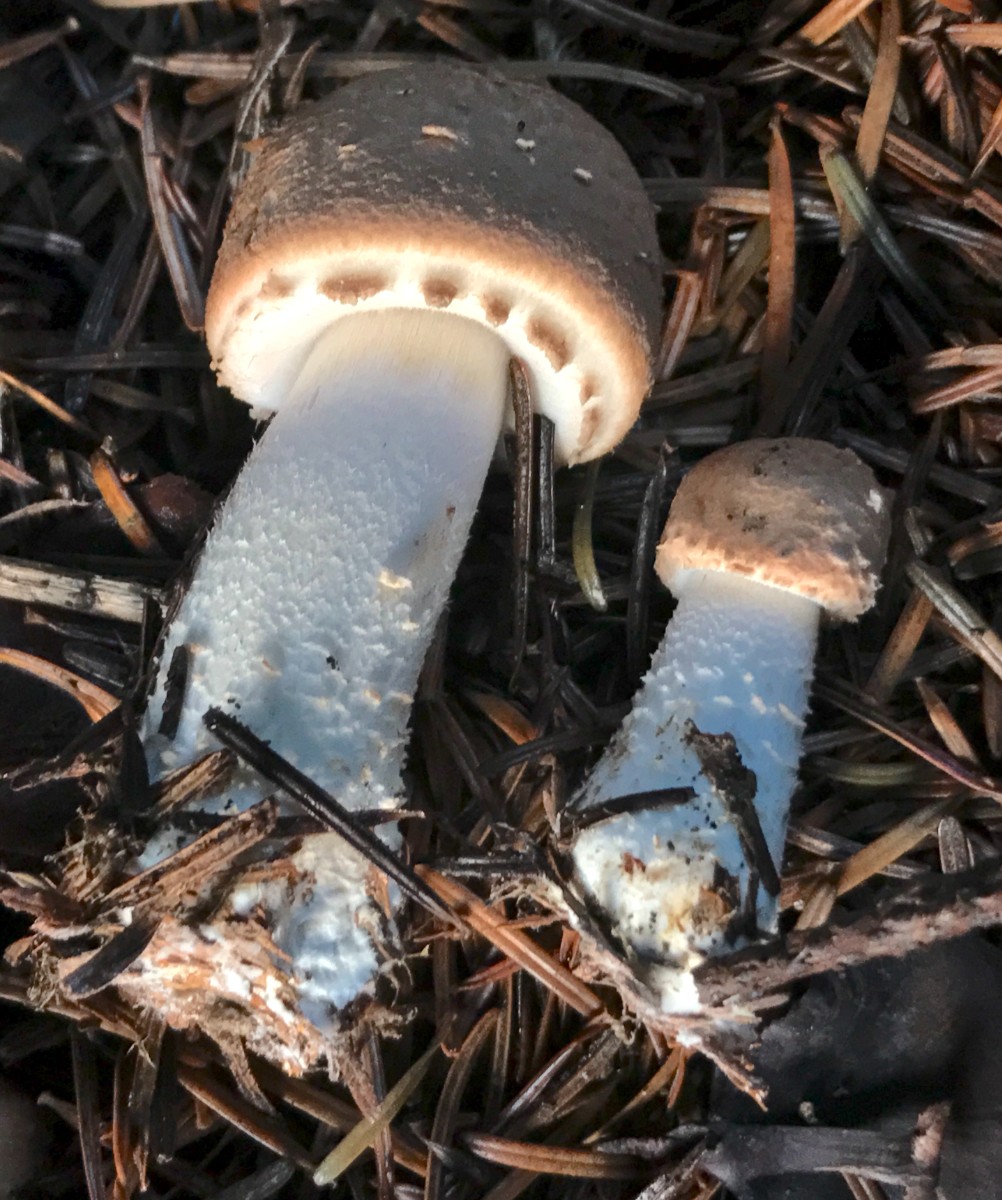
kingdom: Fungi
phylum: Basidiomycota
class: Agaricomycetes
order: Agaricales
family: Agaricaceae
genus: Agaricus
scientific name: Agaricus sylvaticus
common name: lille blod-champignon
